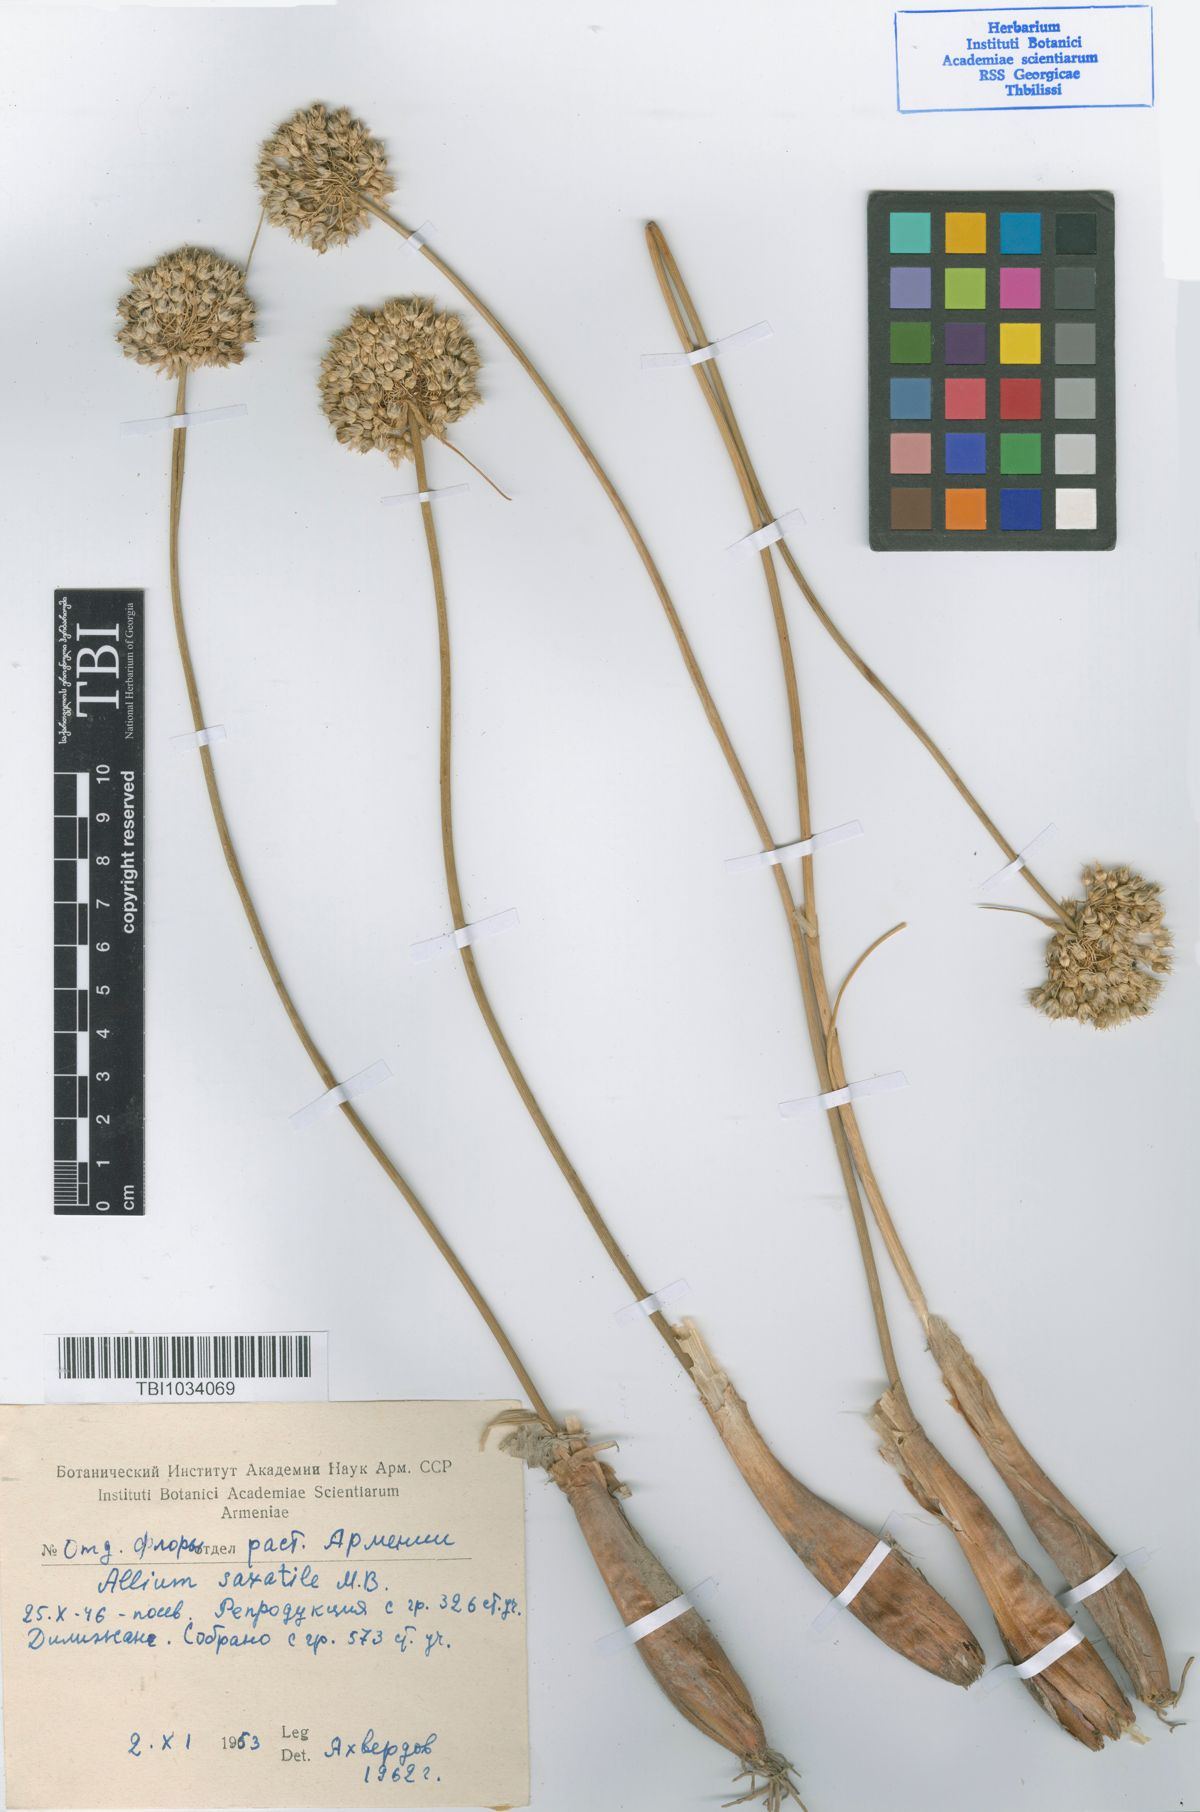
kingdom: Plantae
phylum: Tracheophyta
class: Liliopsida
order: Asparagales
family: Amaryllidaceae
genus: Allium
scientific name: Allium saxatile
